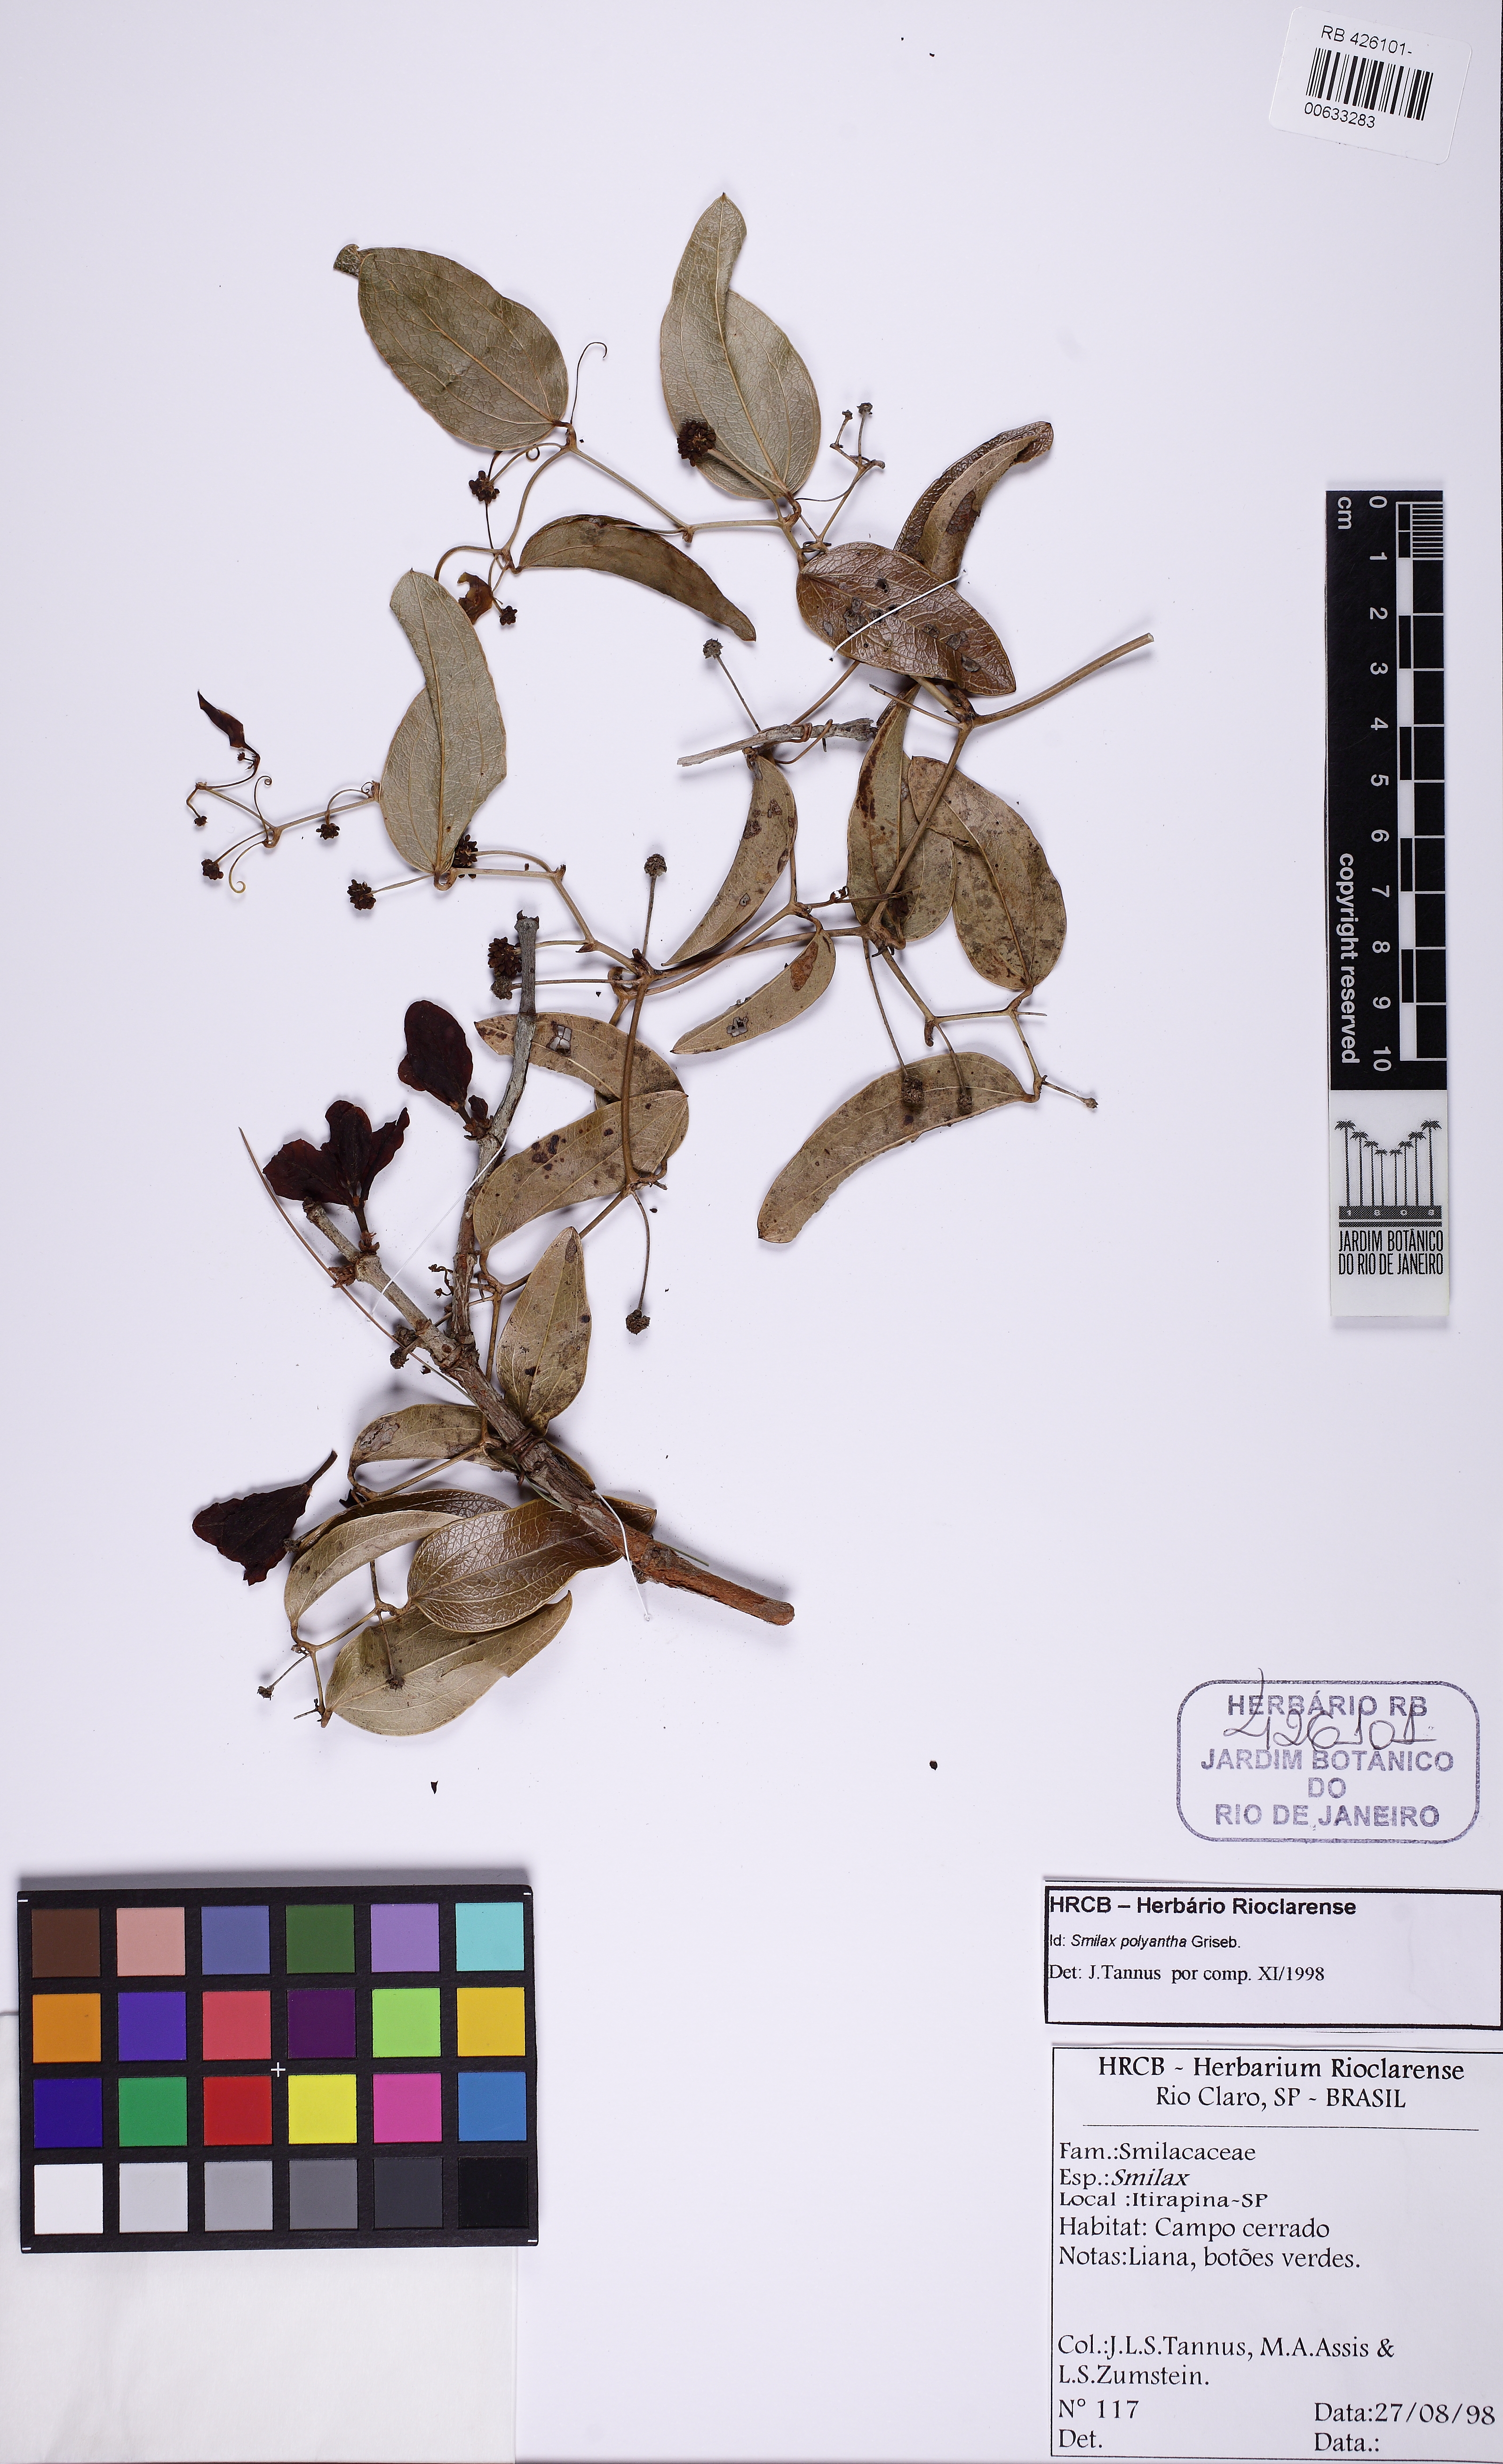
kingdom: Plantae
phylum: Tracheophyta
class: Liliopsida
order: Liliales
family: Smilacaceae
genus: Smilax
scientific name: Smilax polyantha
